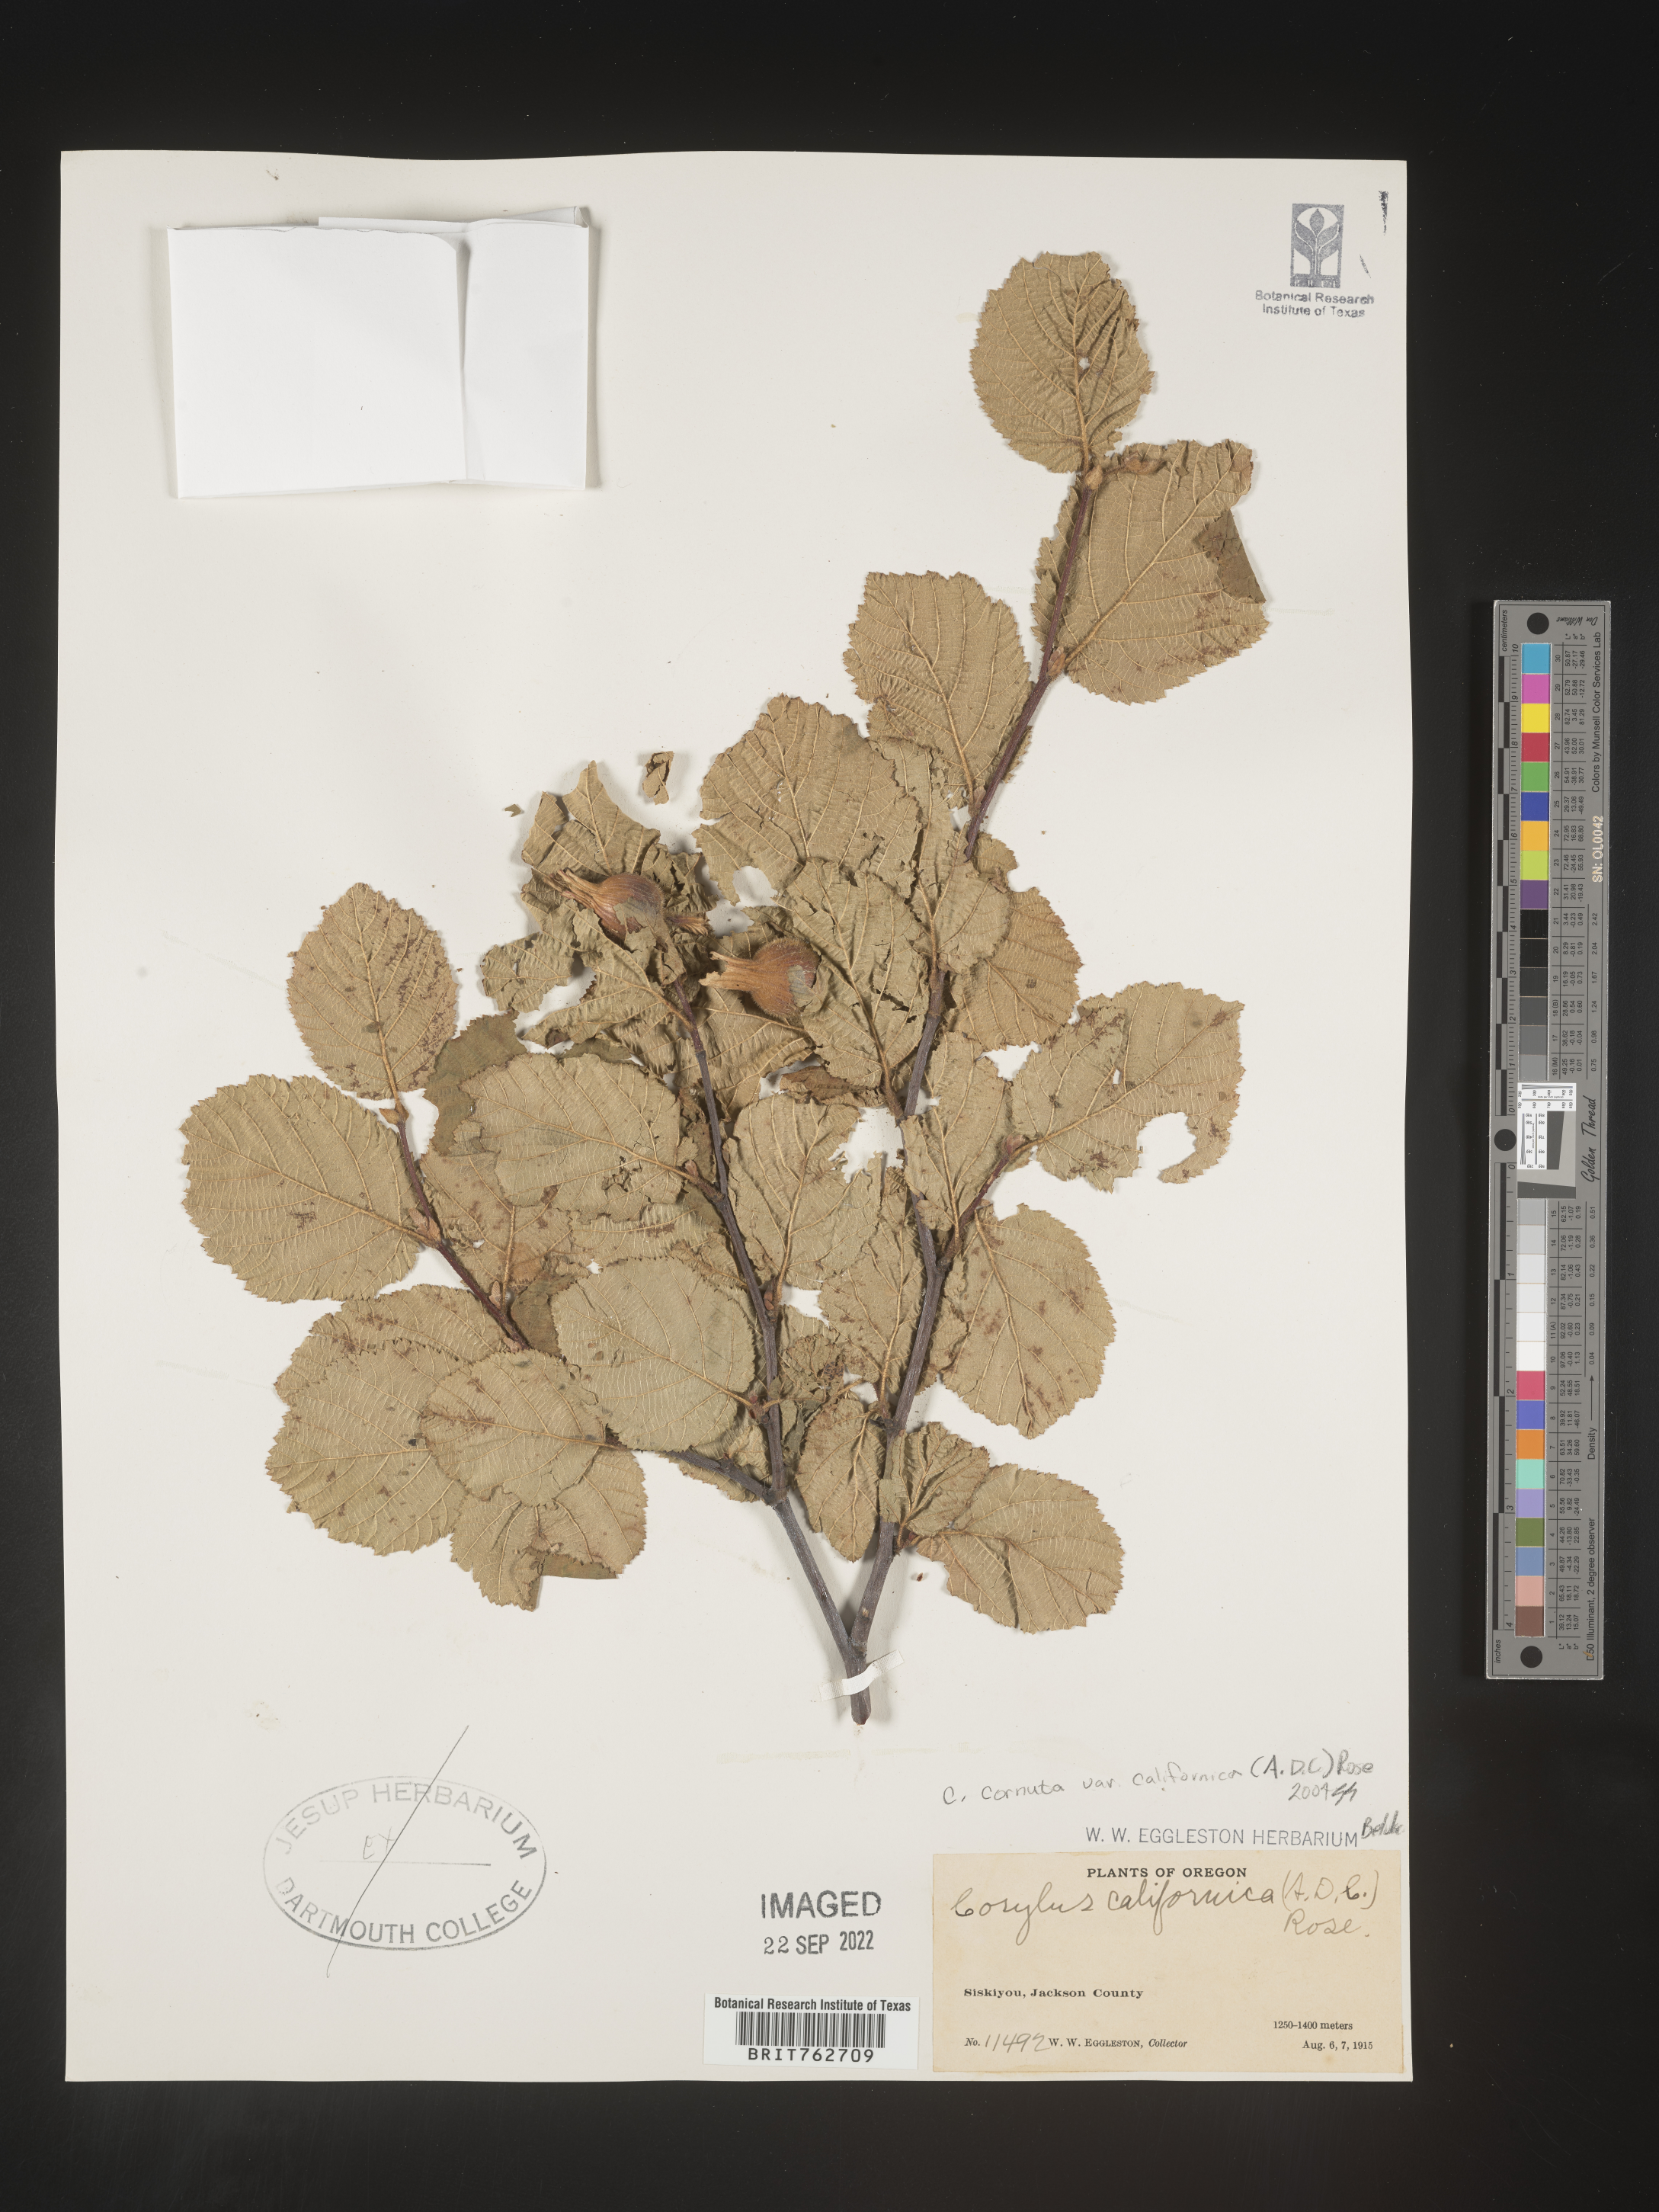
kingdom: Plantae
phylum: Tracheophyta
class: Magnoliopsida
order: Fagales
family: Betulaceae
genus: Corylus
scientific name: Corylus cornuta
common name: Beaked hazel
